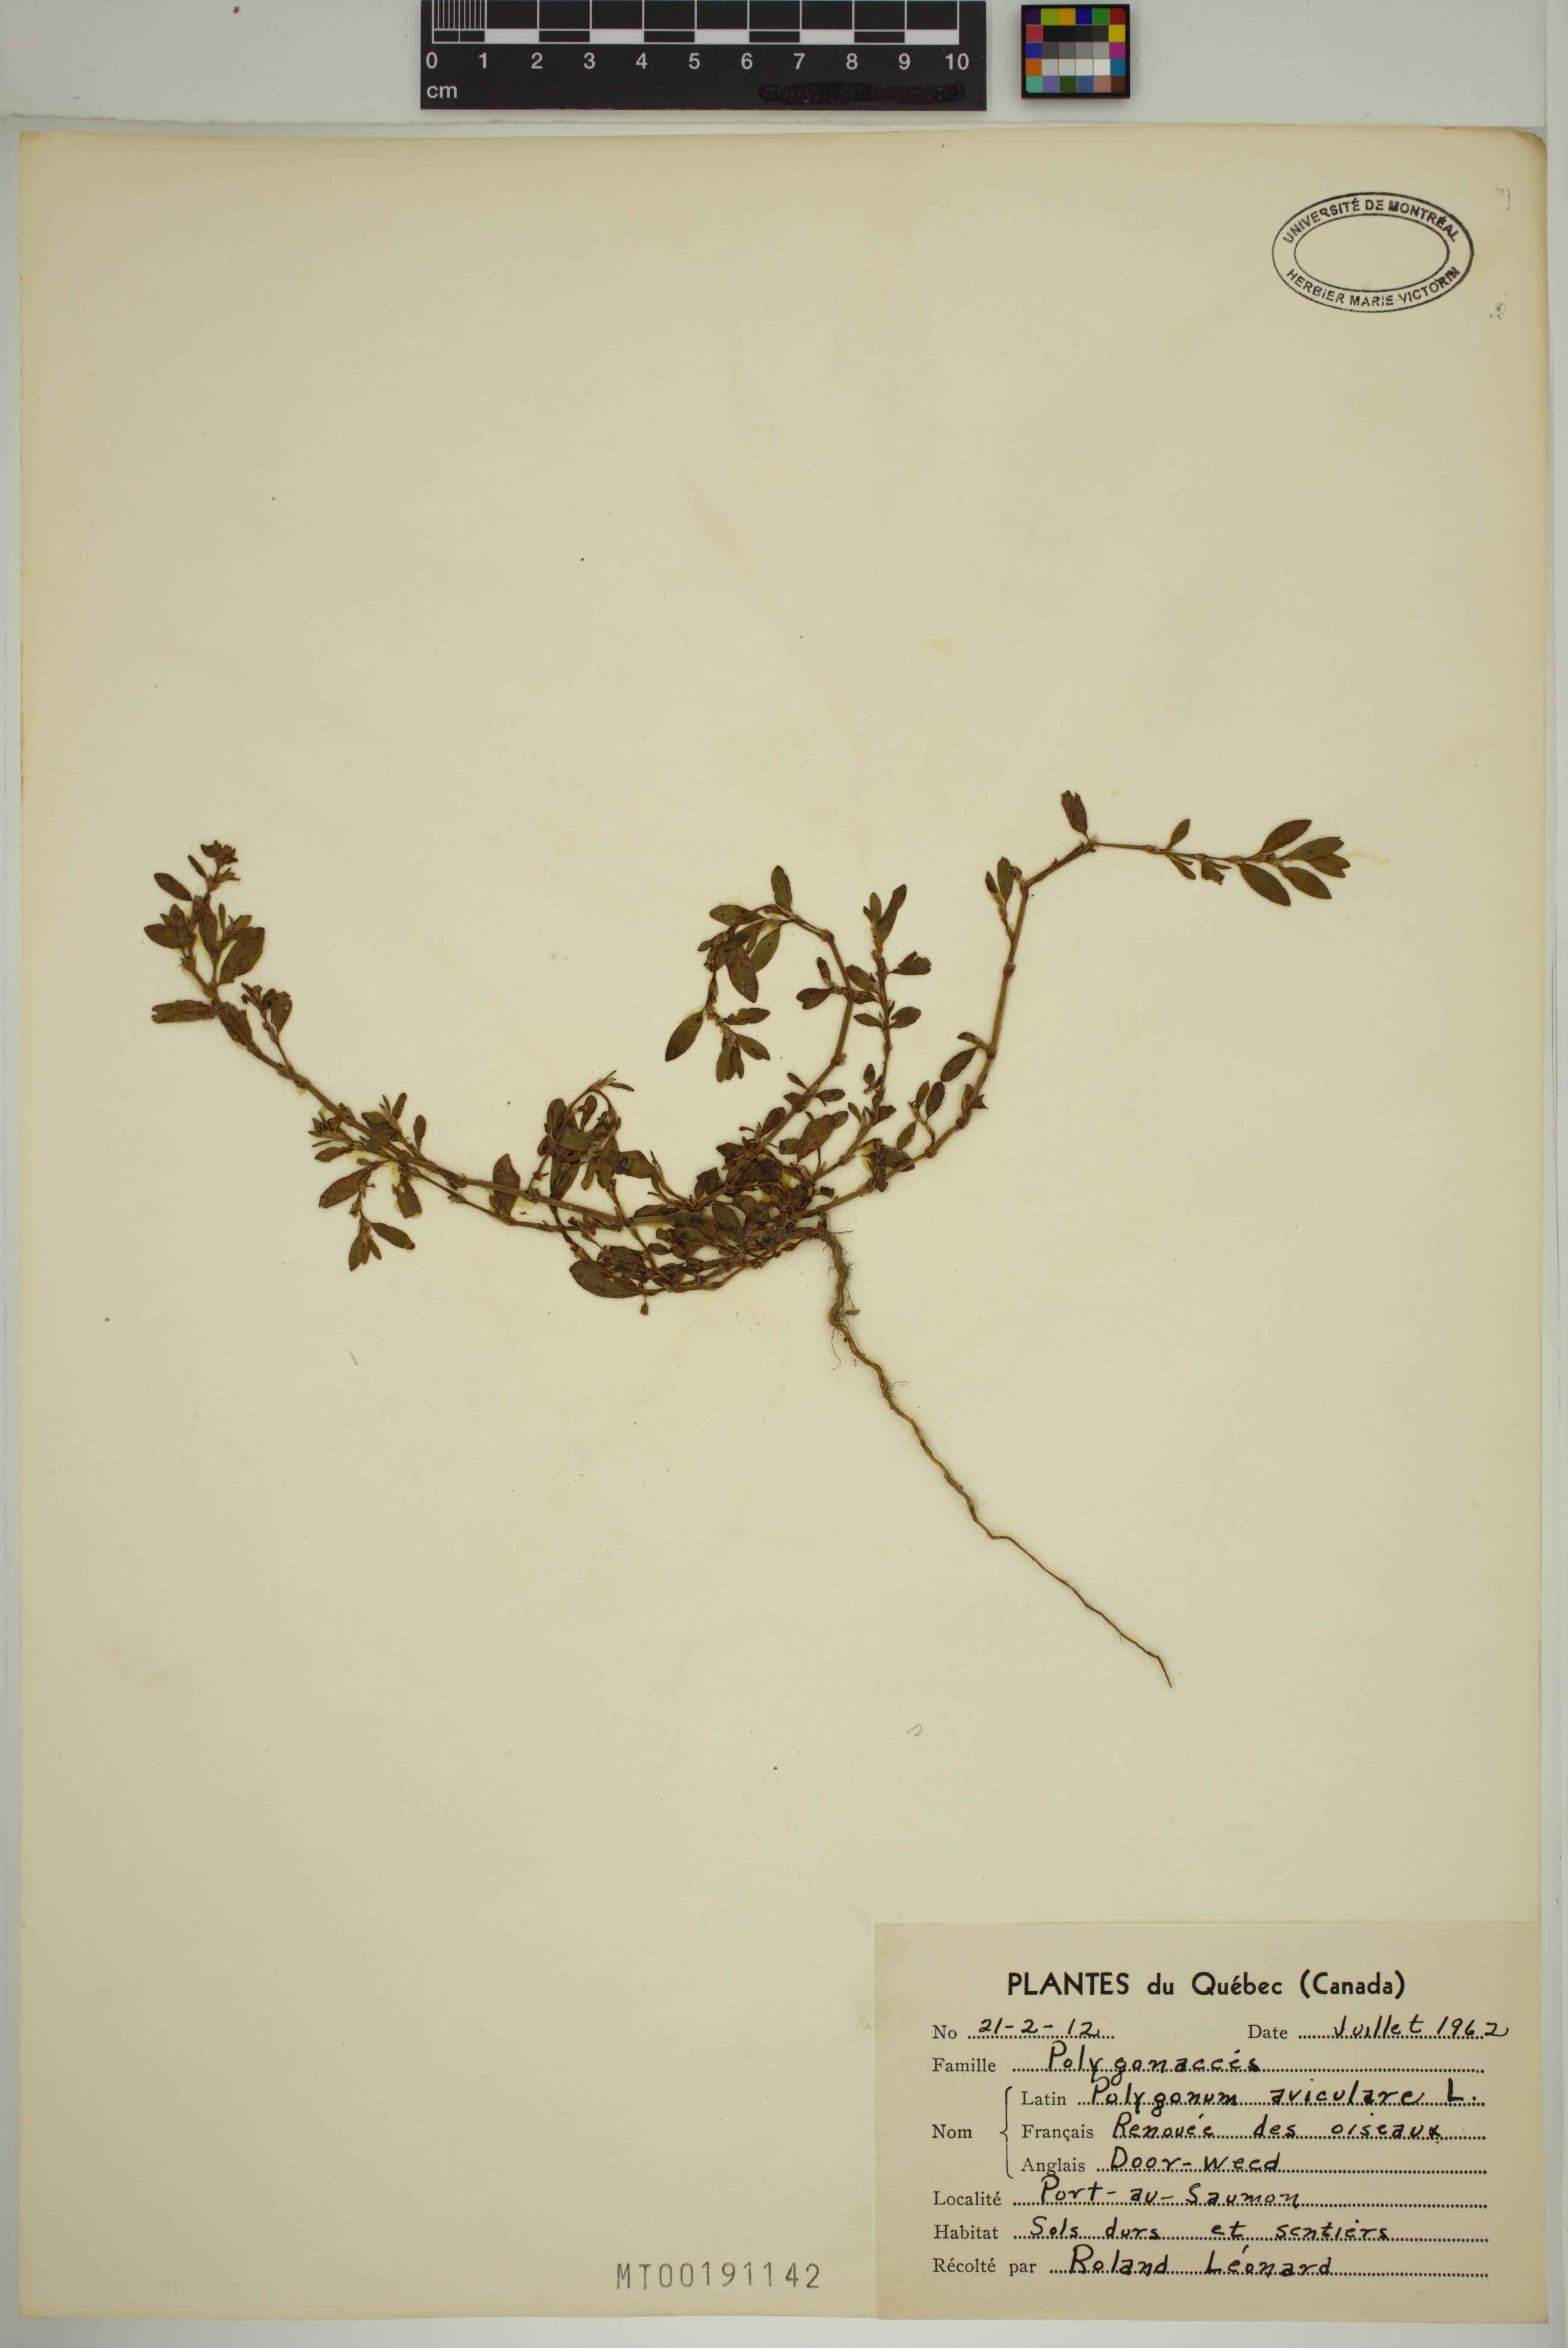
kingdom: Plantae
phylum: Tracheophyta
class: Magnoliopsida
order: Caryophyllales
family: Polygonaceae
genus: Polygonum
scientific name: Polygonum aviculare
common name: Prostrate knotweed
